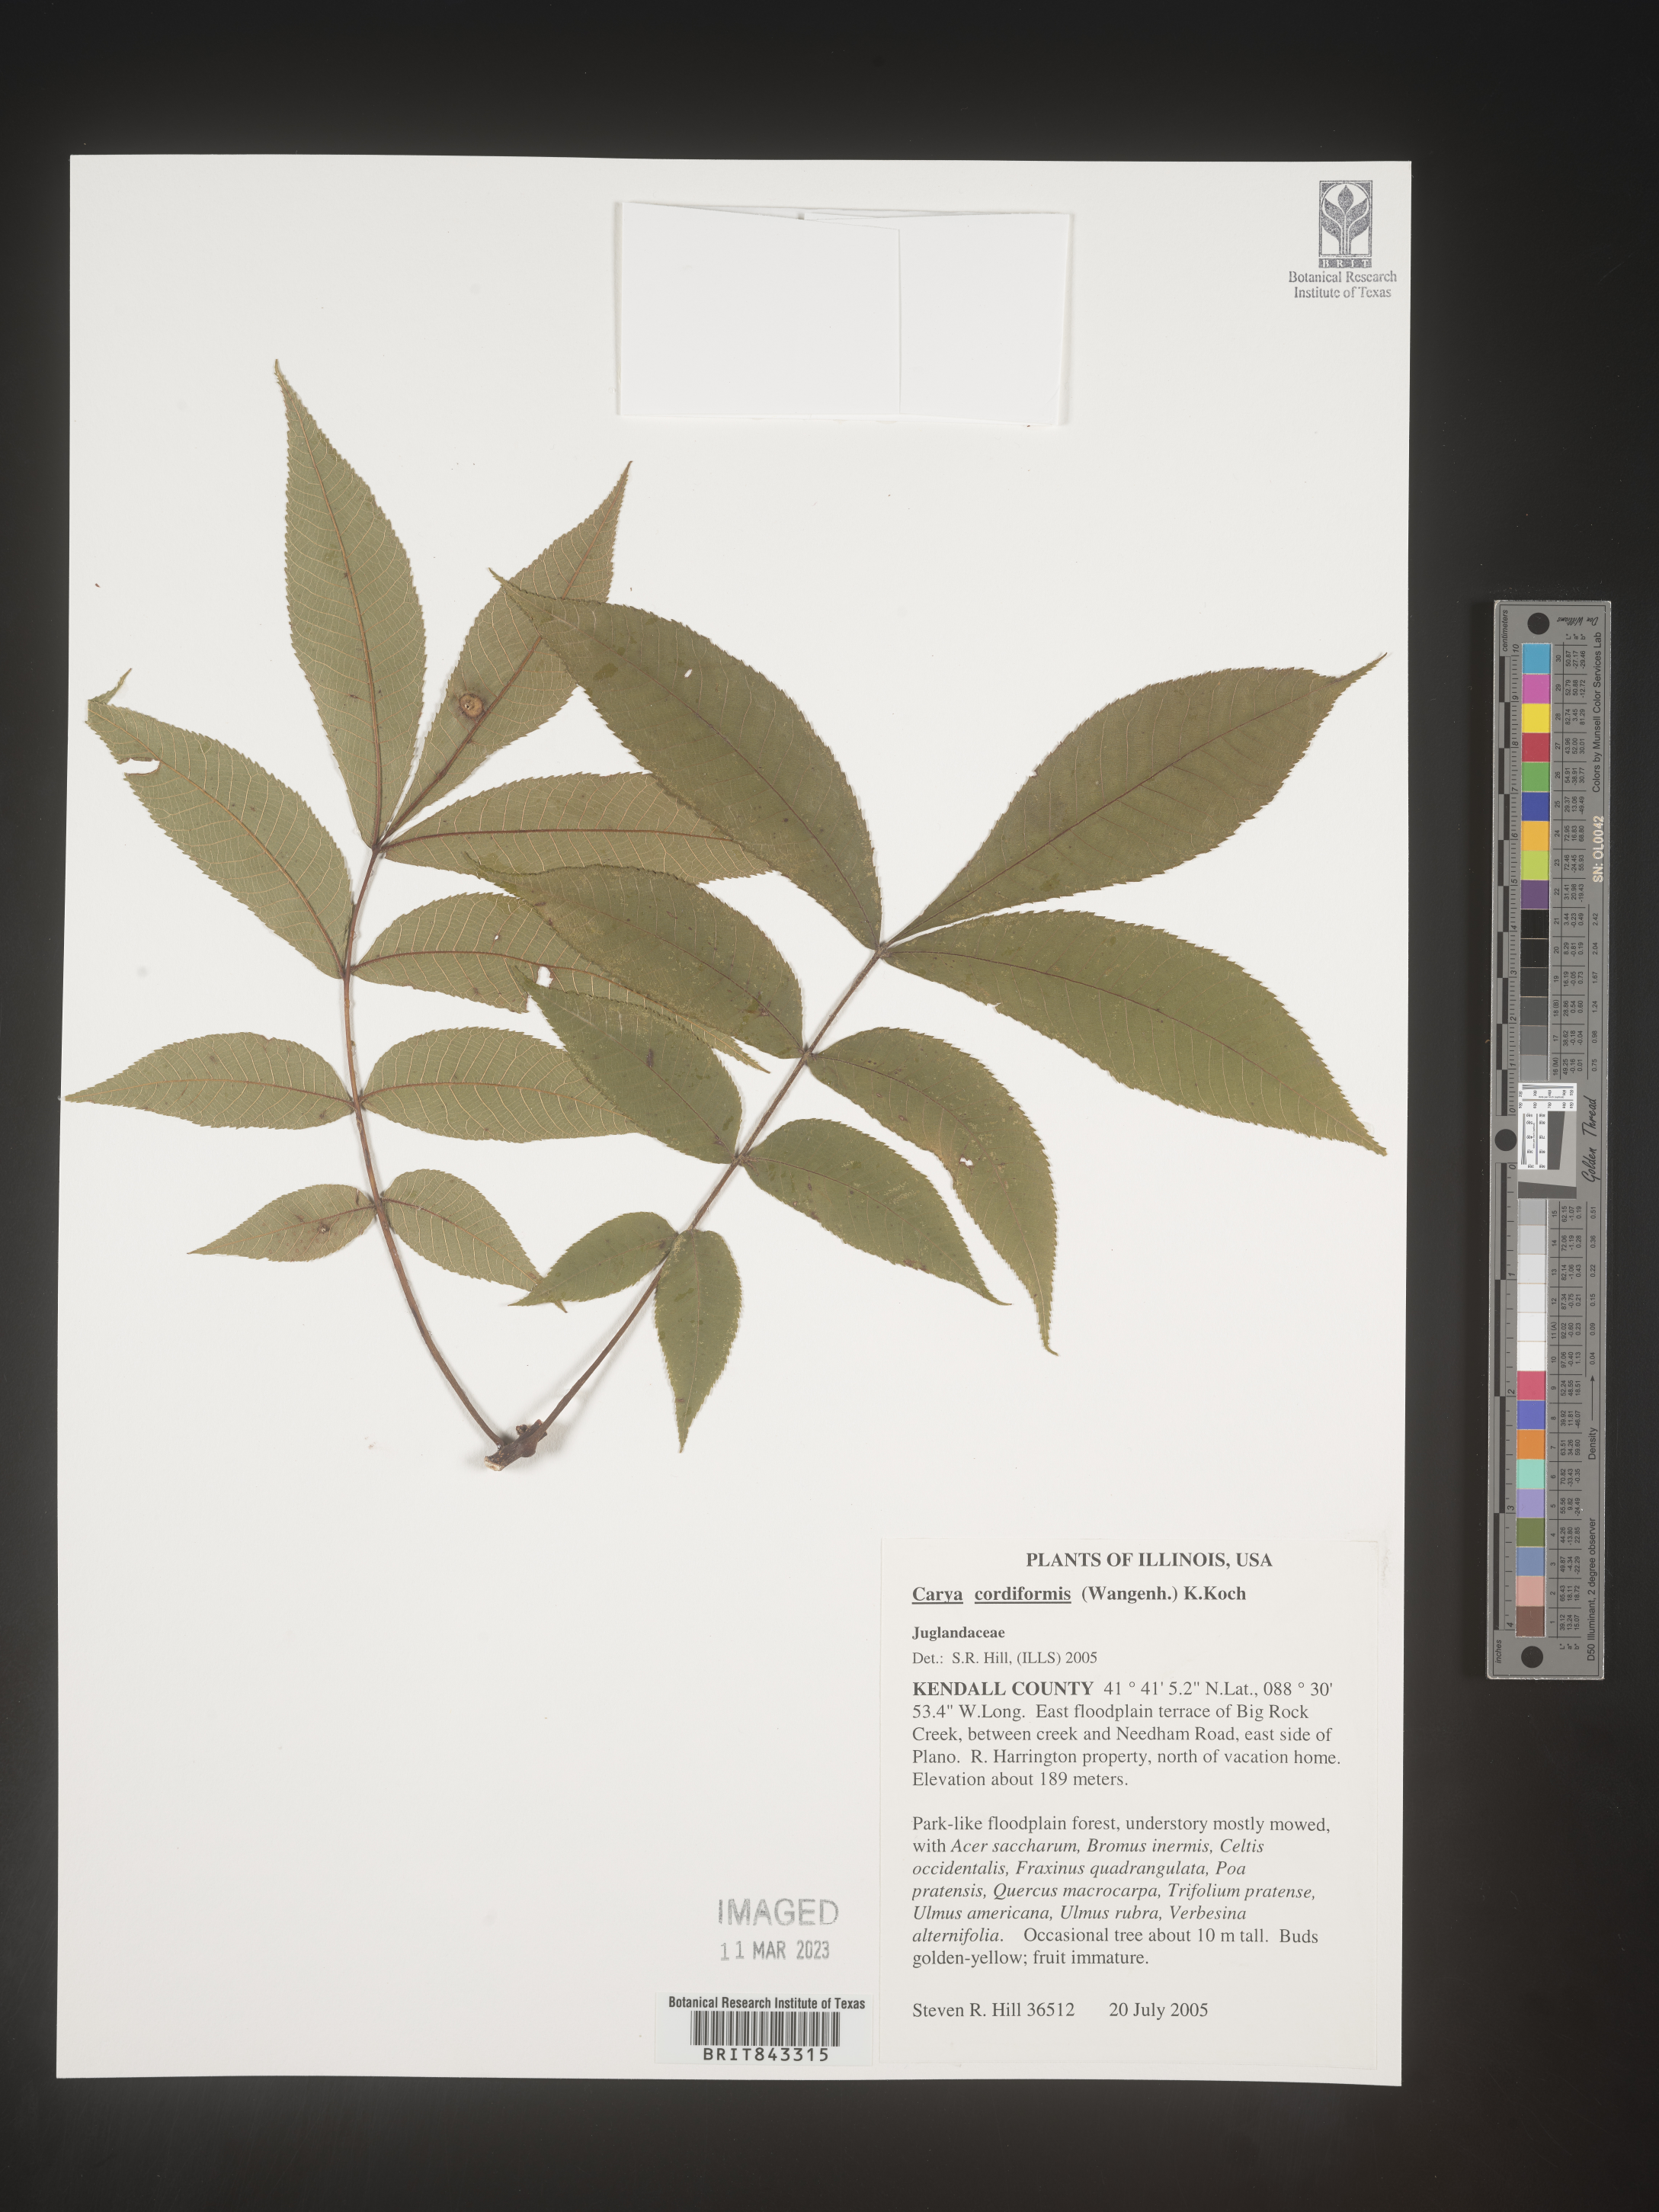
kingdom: Plantae
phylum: Tracheophyta
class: Magnoliopsida
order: Fagales
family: Juglandaceae
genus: Carya
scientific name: Carya cordiformis
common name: Bitternut hickory
